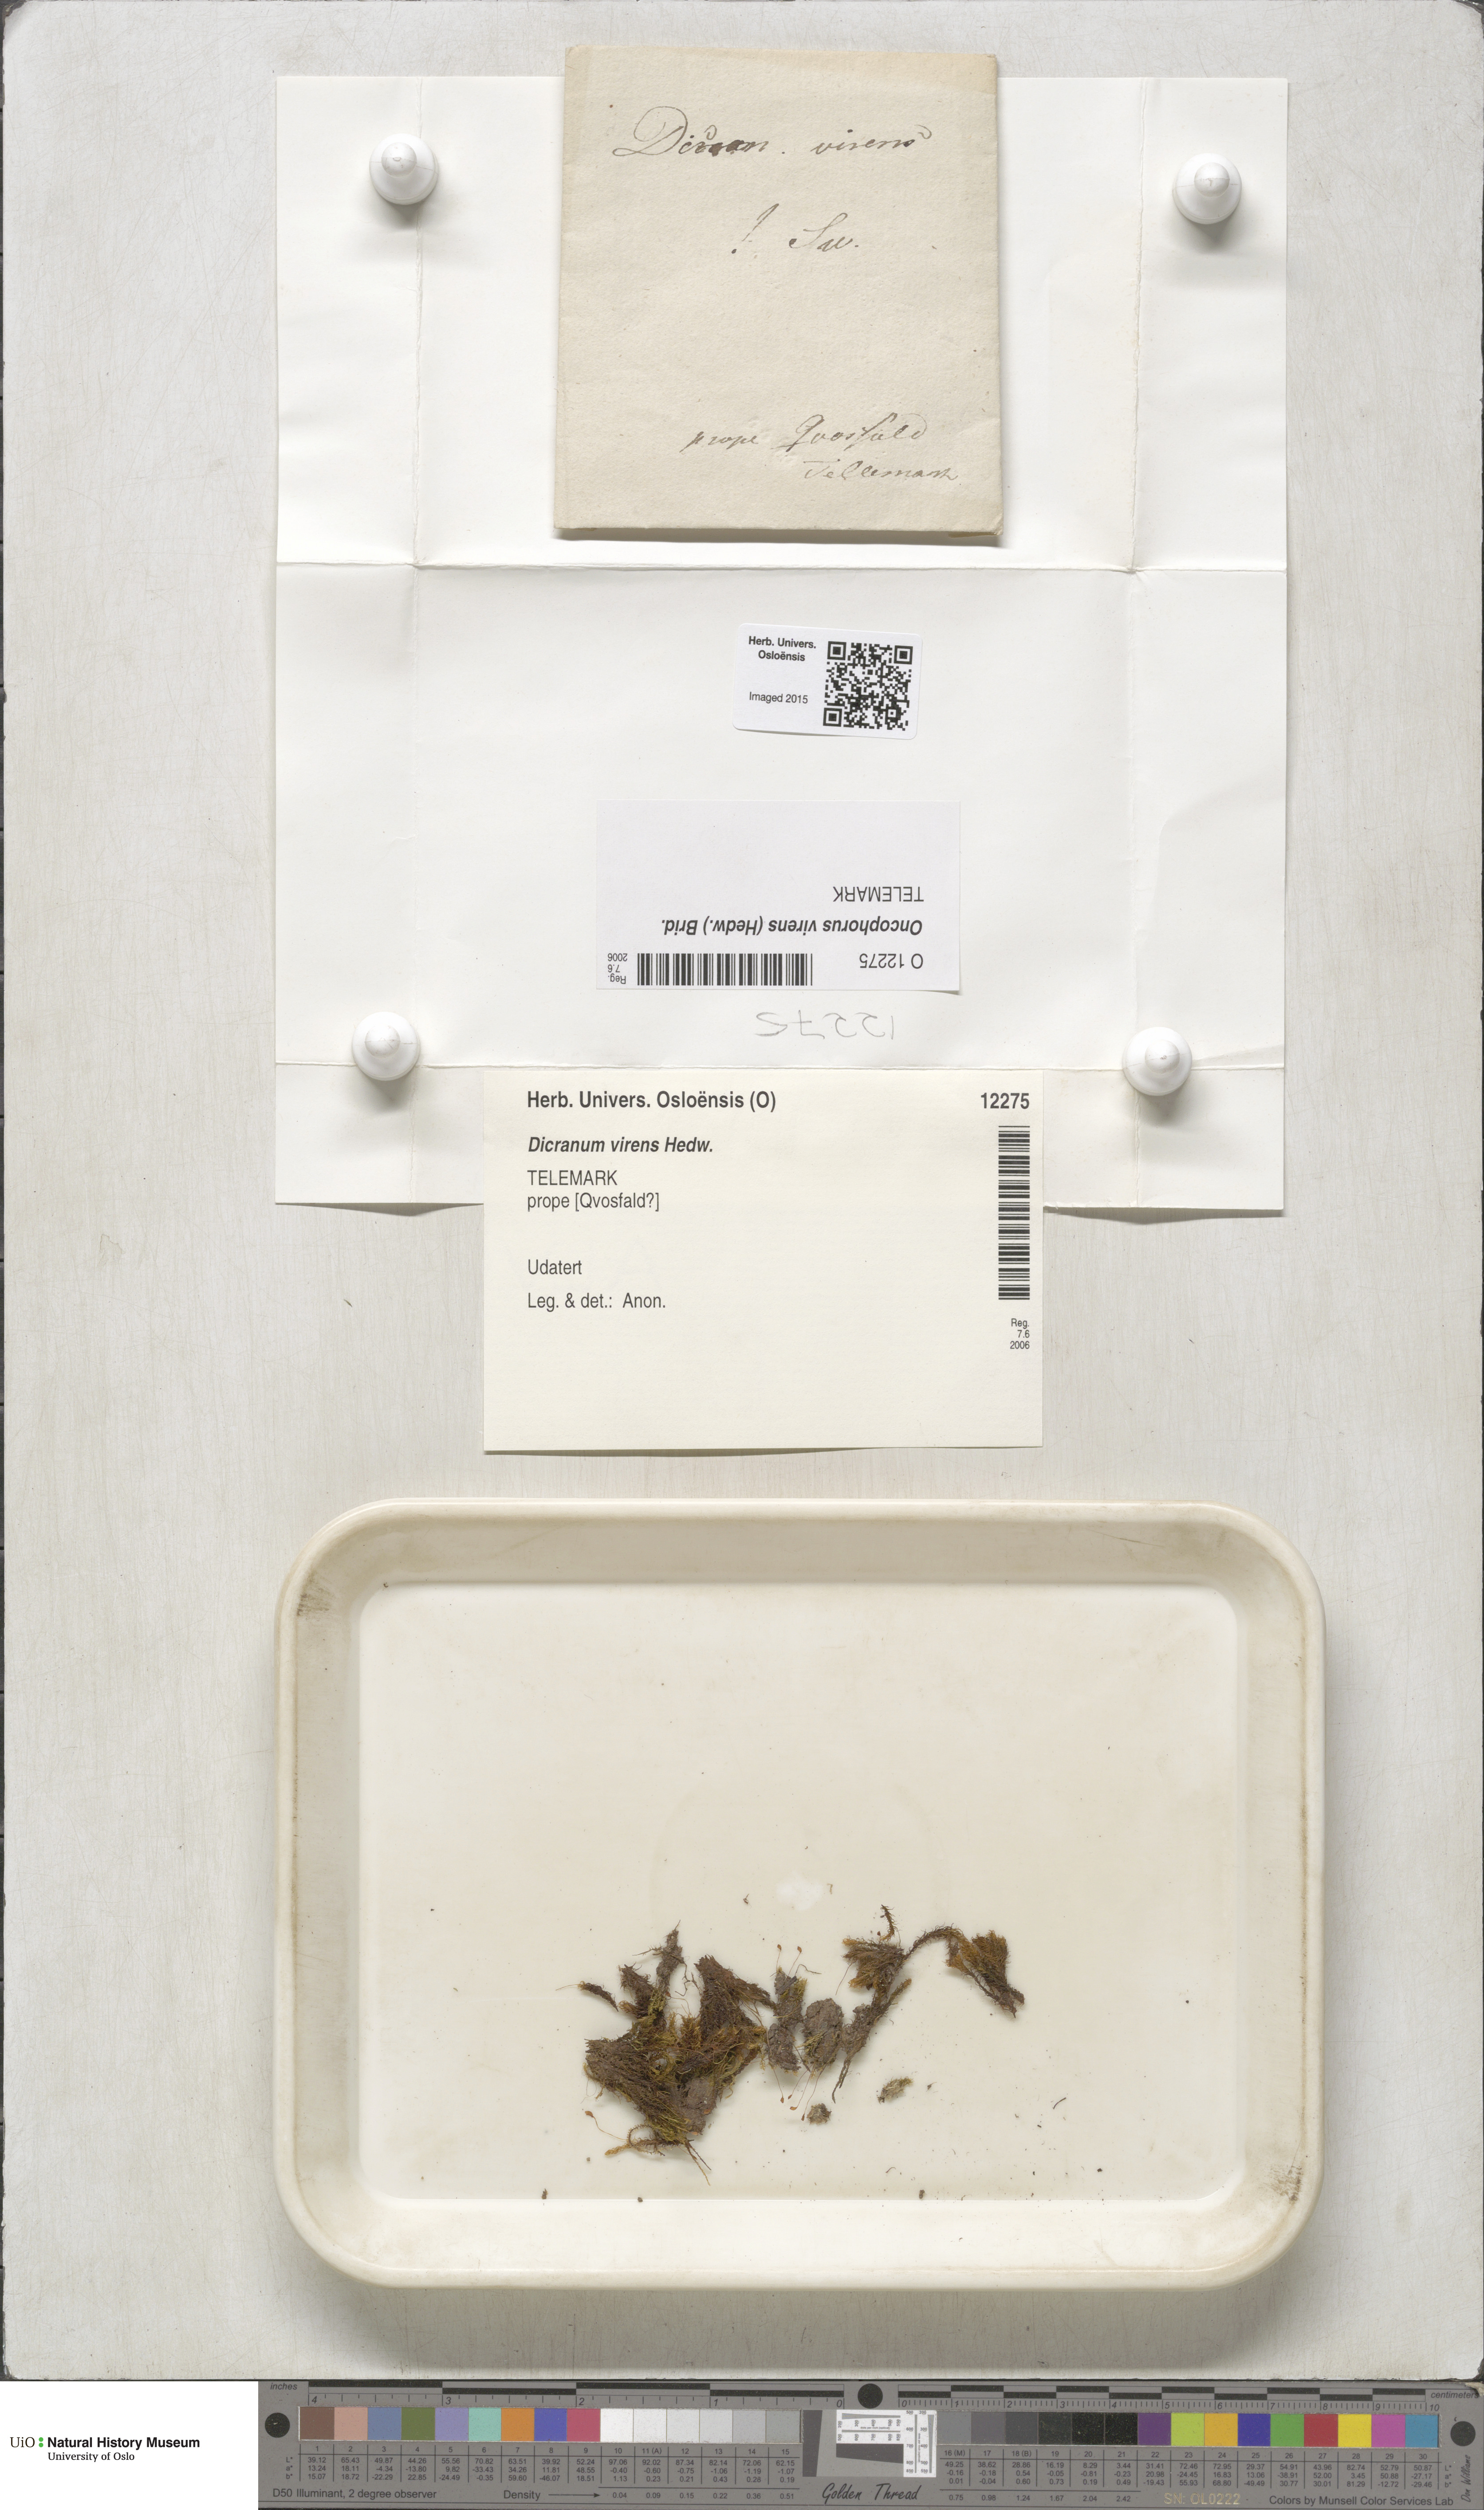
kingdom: Plantae
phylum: Bryophyta
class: Bryopsida
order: Dicranales
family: Rhabdoweisiaceae
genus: Oncophorus
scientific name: Oncophorus virens
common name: Green spur moss
